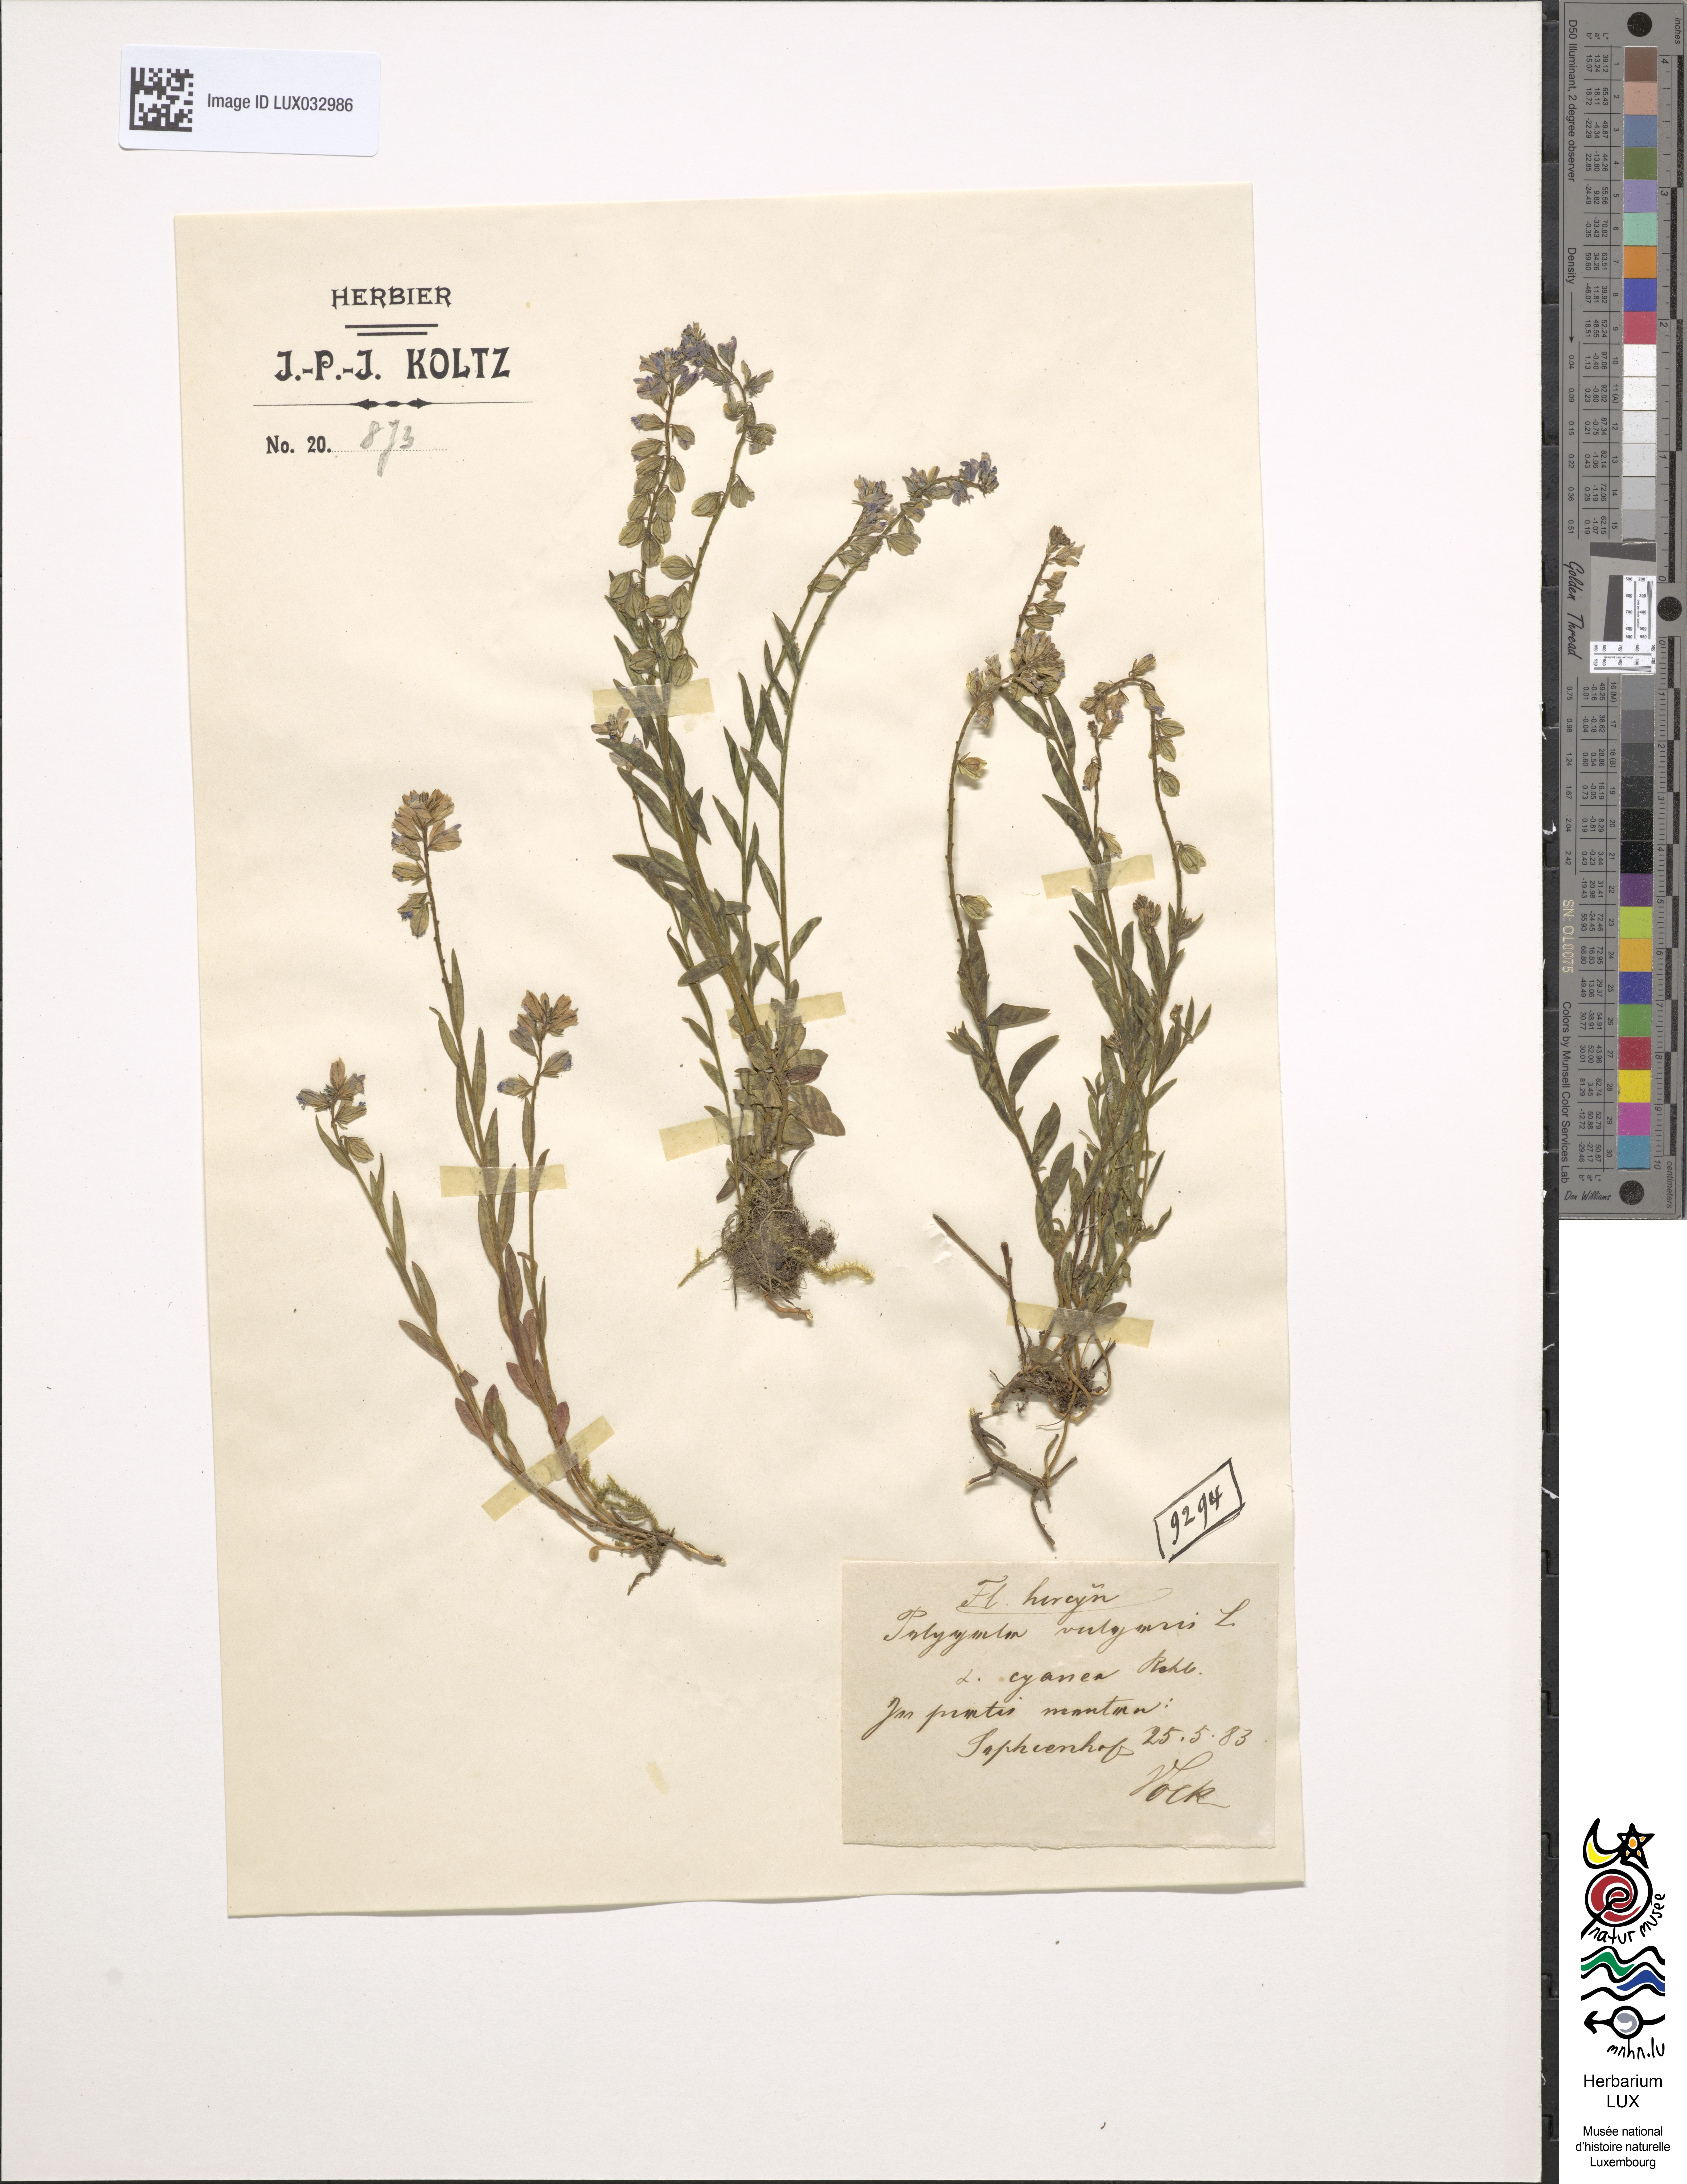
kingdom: Plantae
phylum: Tracheophyta
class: Magnoliopsida
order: Fabales
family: Polygalaceae
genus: Polygala
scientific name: Polygala vulgaris
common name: Common milkwort
